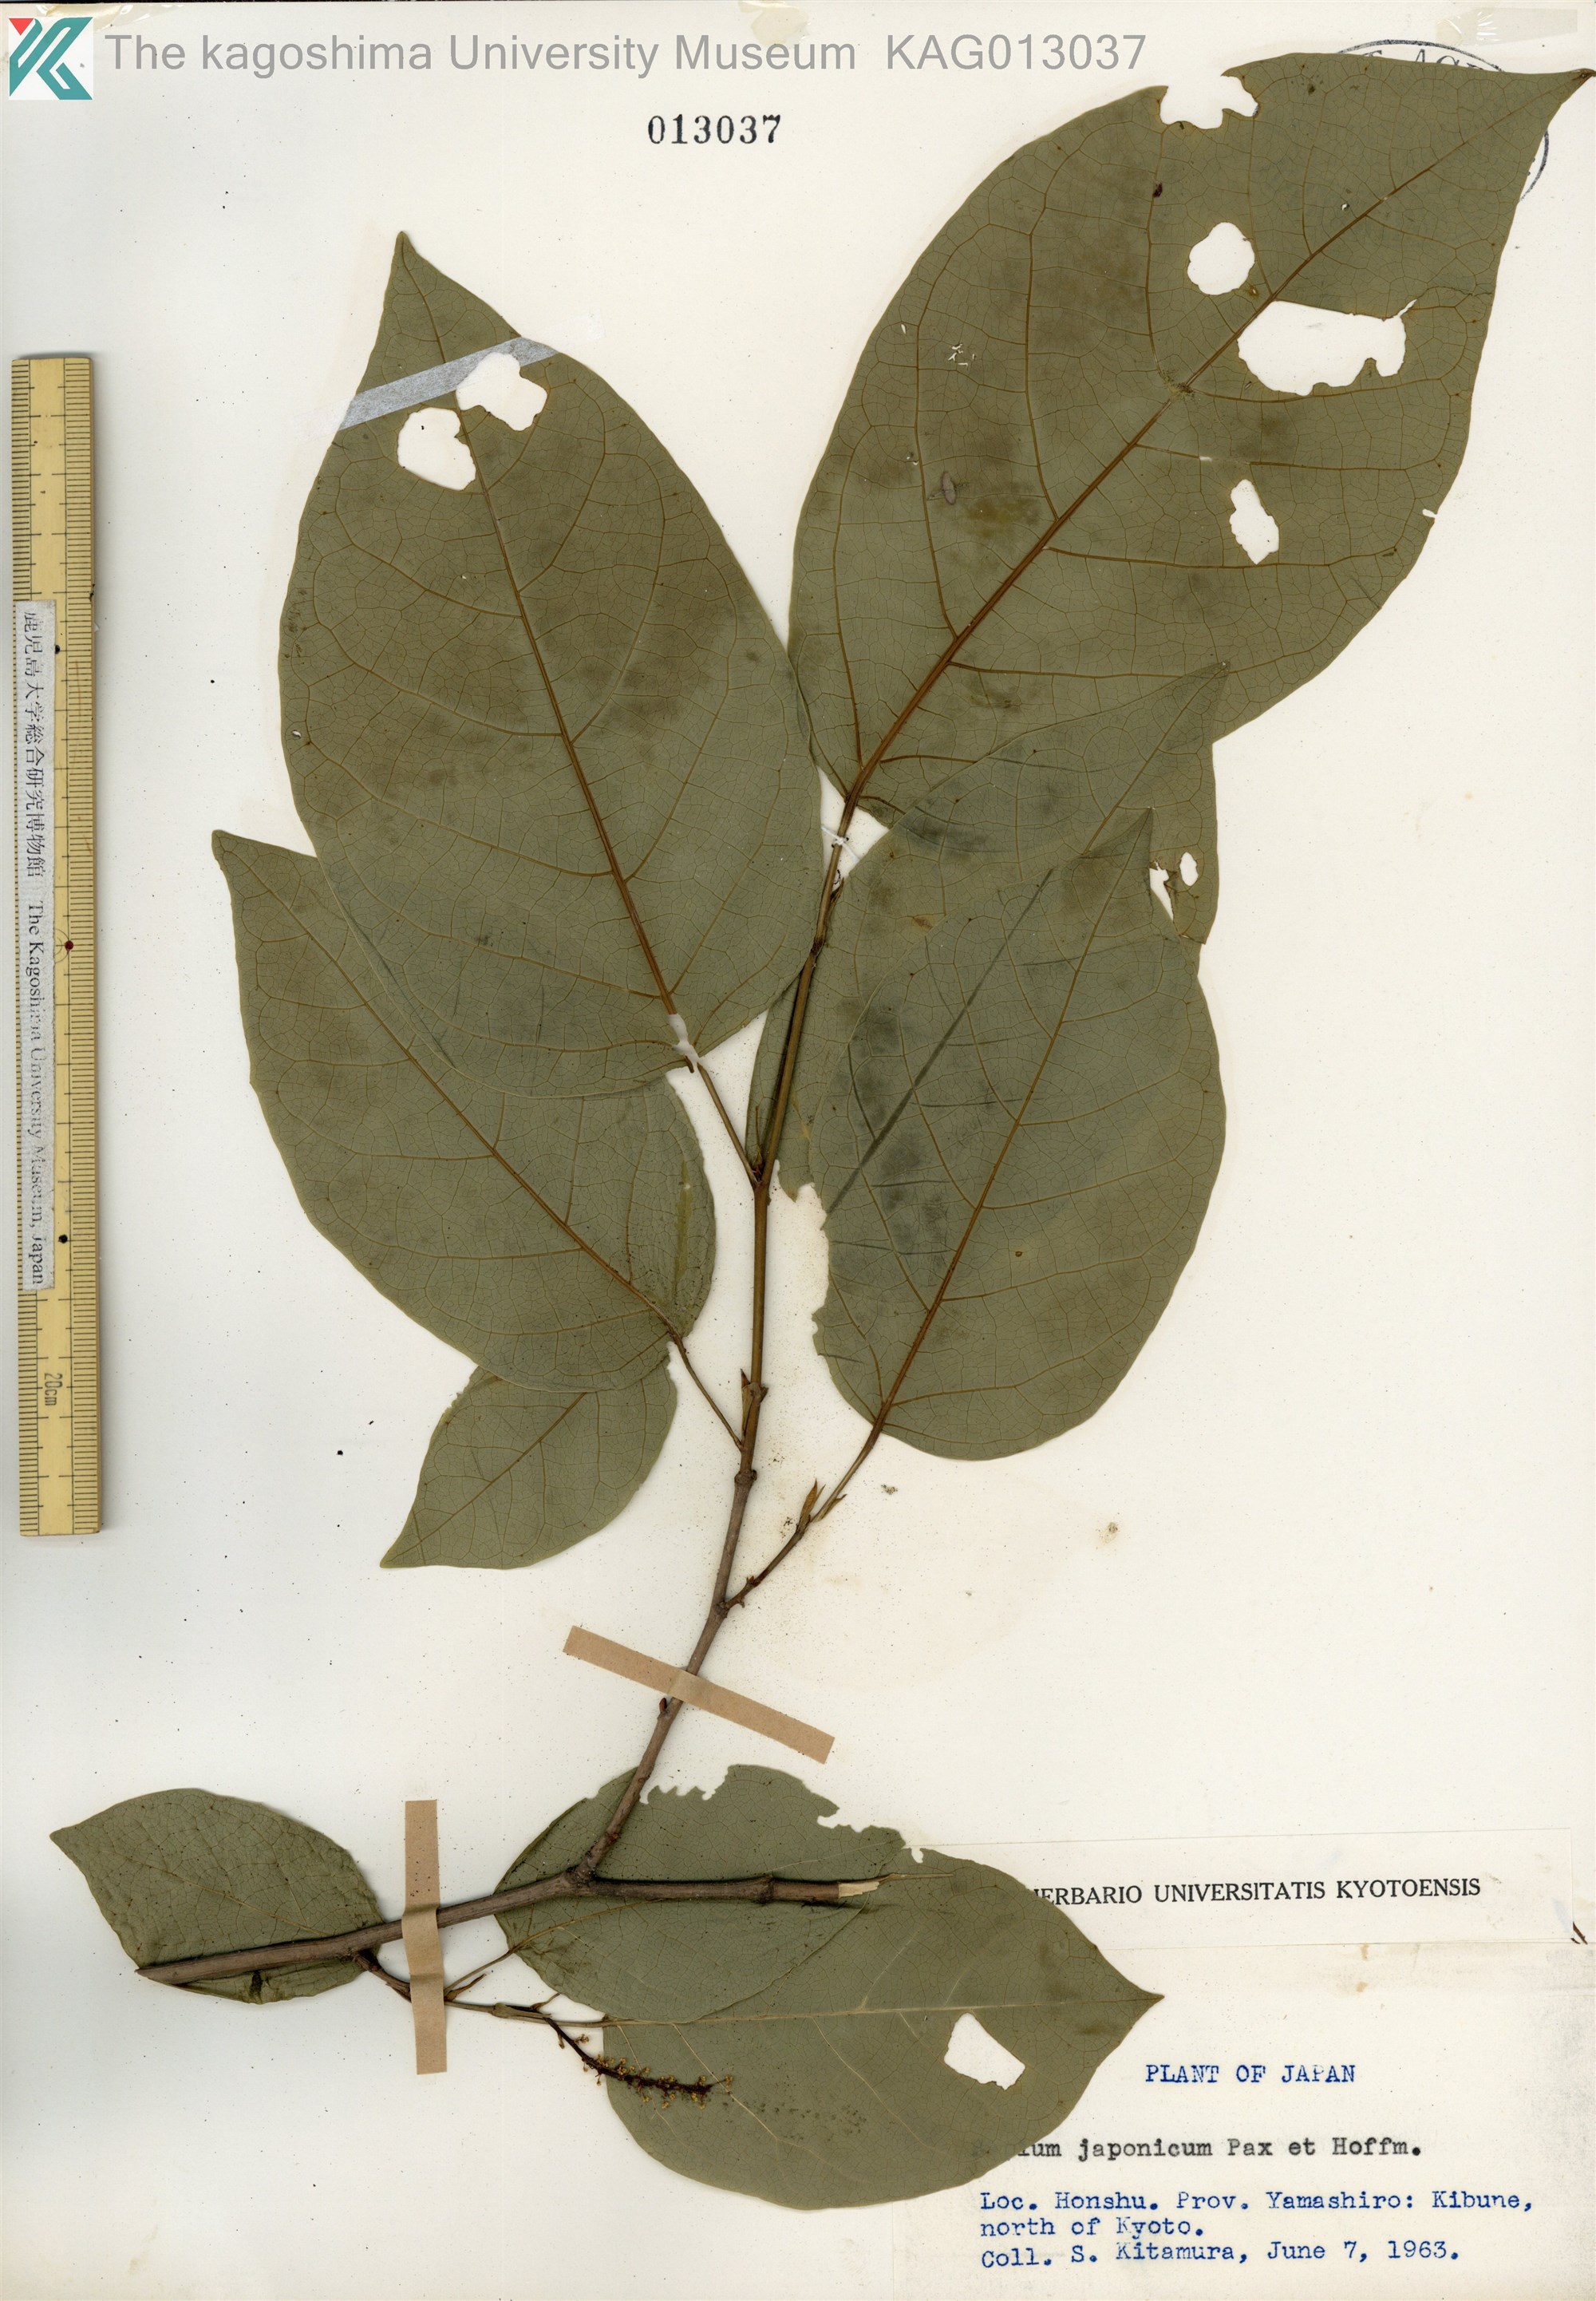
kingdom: Plantae
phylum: Tracheophyta
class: Magnoliopsida
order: Malpighiales
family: Euphorbiaceae
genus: Neoshirakia
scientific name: Neoshirakia japonica
